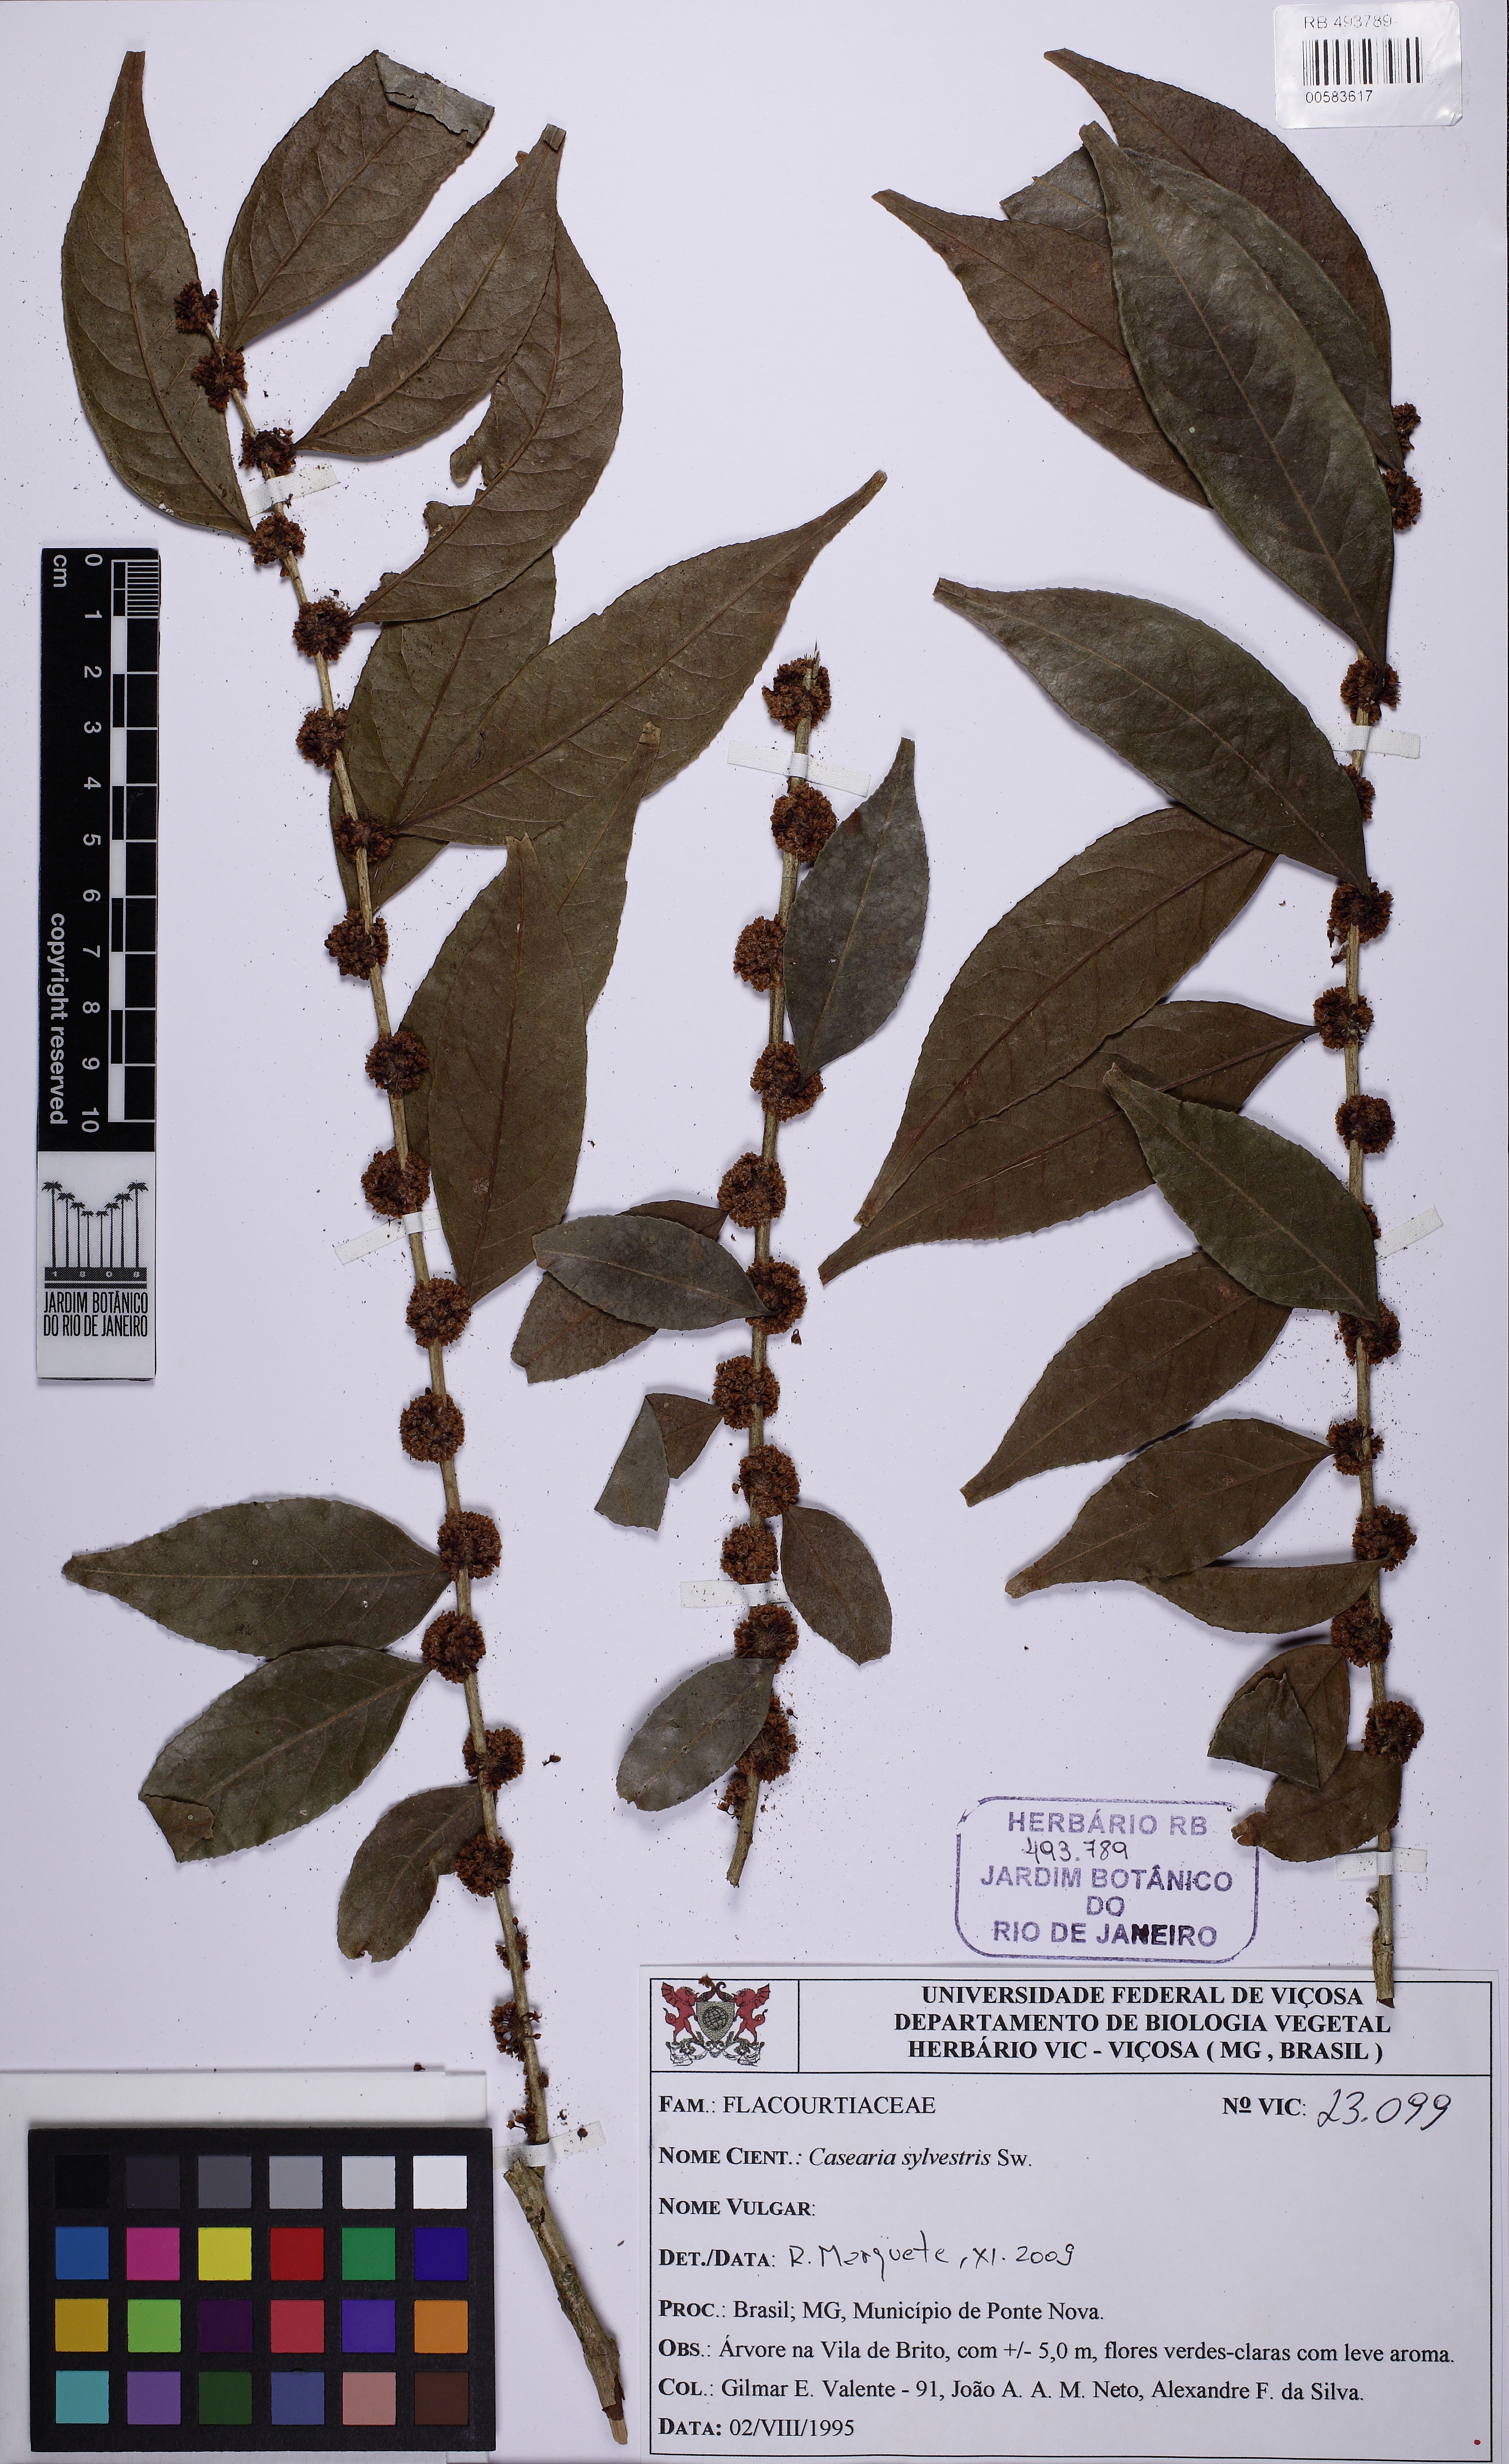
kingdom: Plantae
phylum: Tracheophyta
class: Magnoliopsida
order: Malpighiales
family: Salicaceae
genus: Casearia
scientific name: Casearia sylvestris
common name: Wild sage
